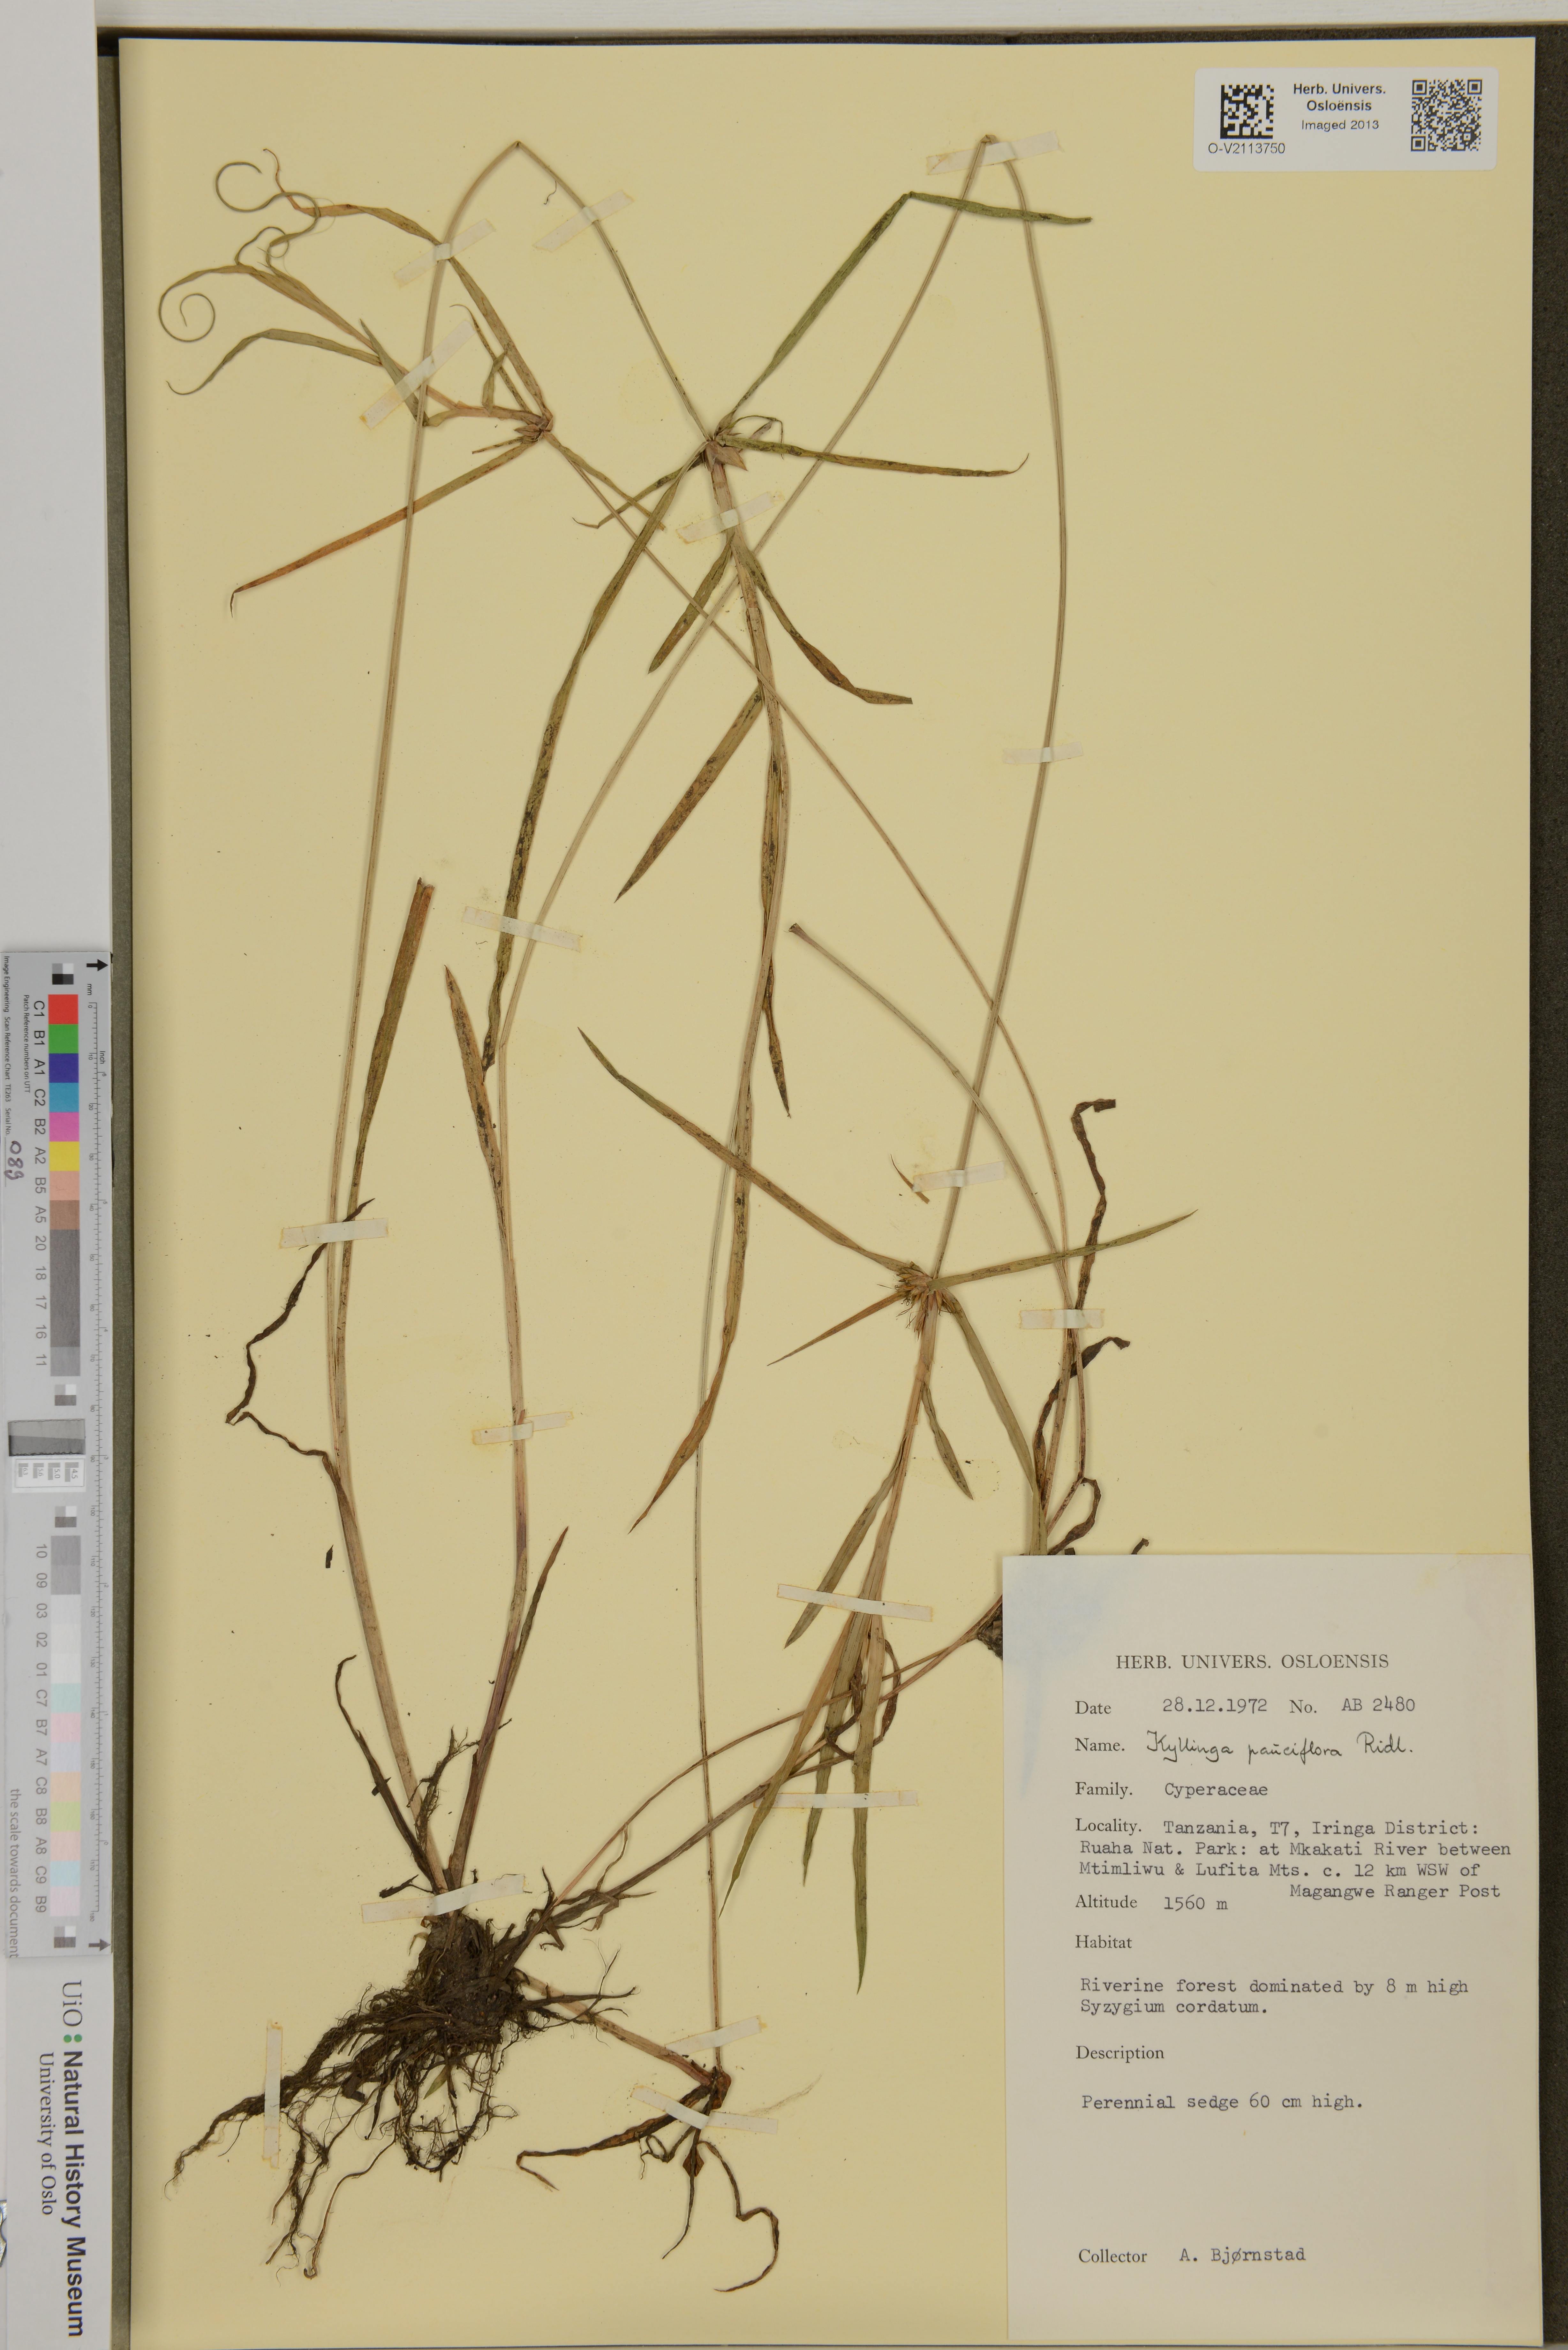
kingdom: Plantae
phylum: Tracheophyta
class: Liliopsida
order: Poales
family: Cyperaceae
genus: Cyperus
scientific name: Cyperus ridleyi
